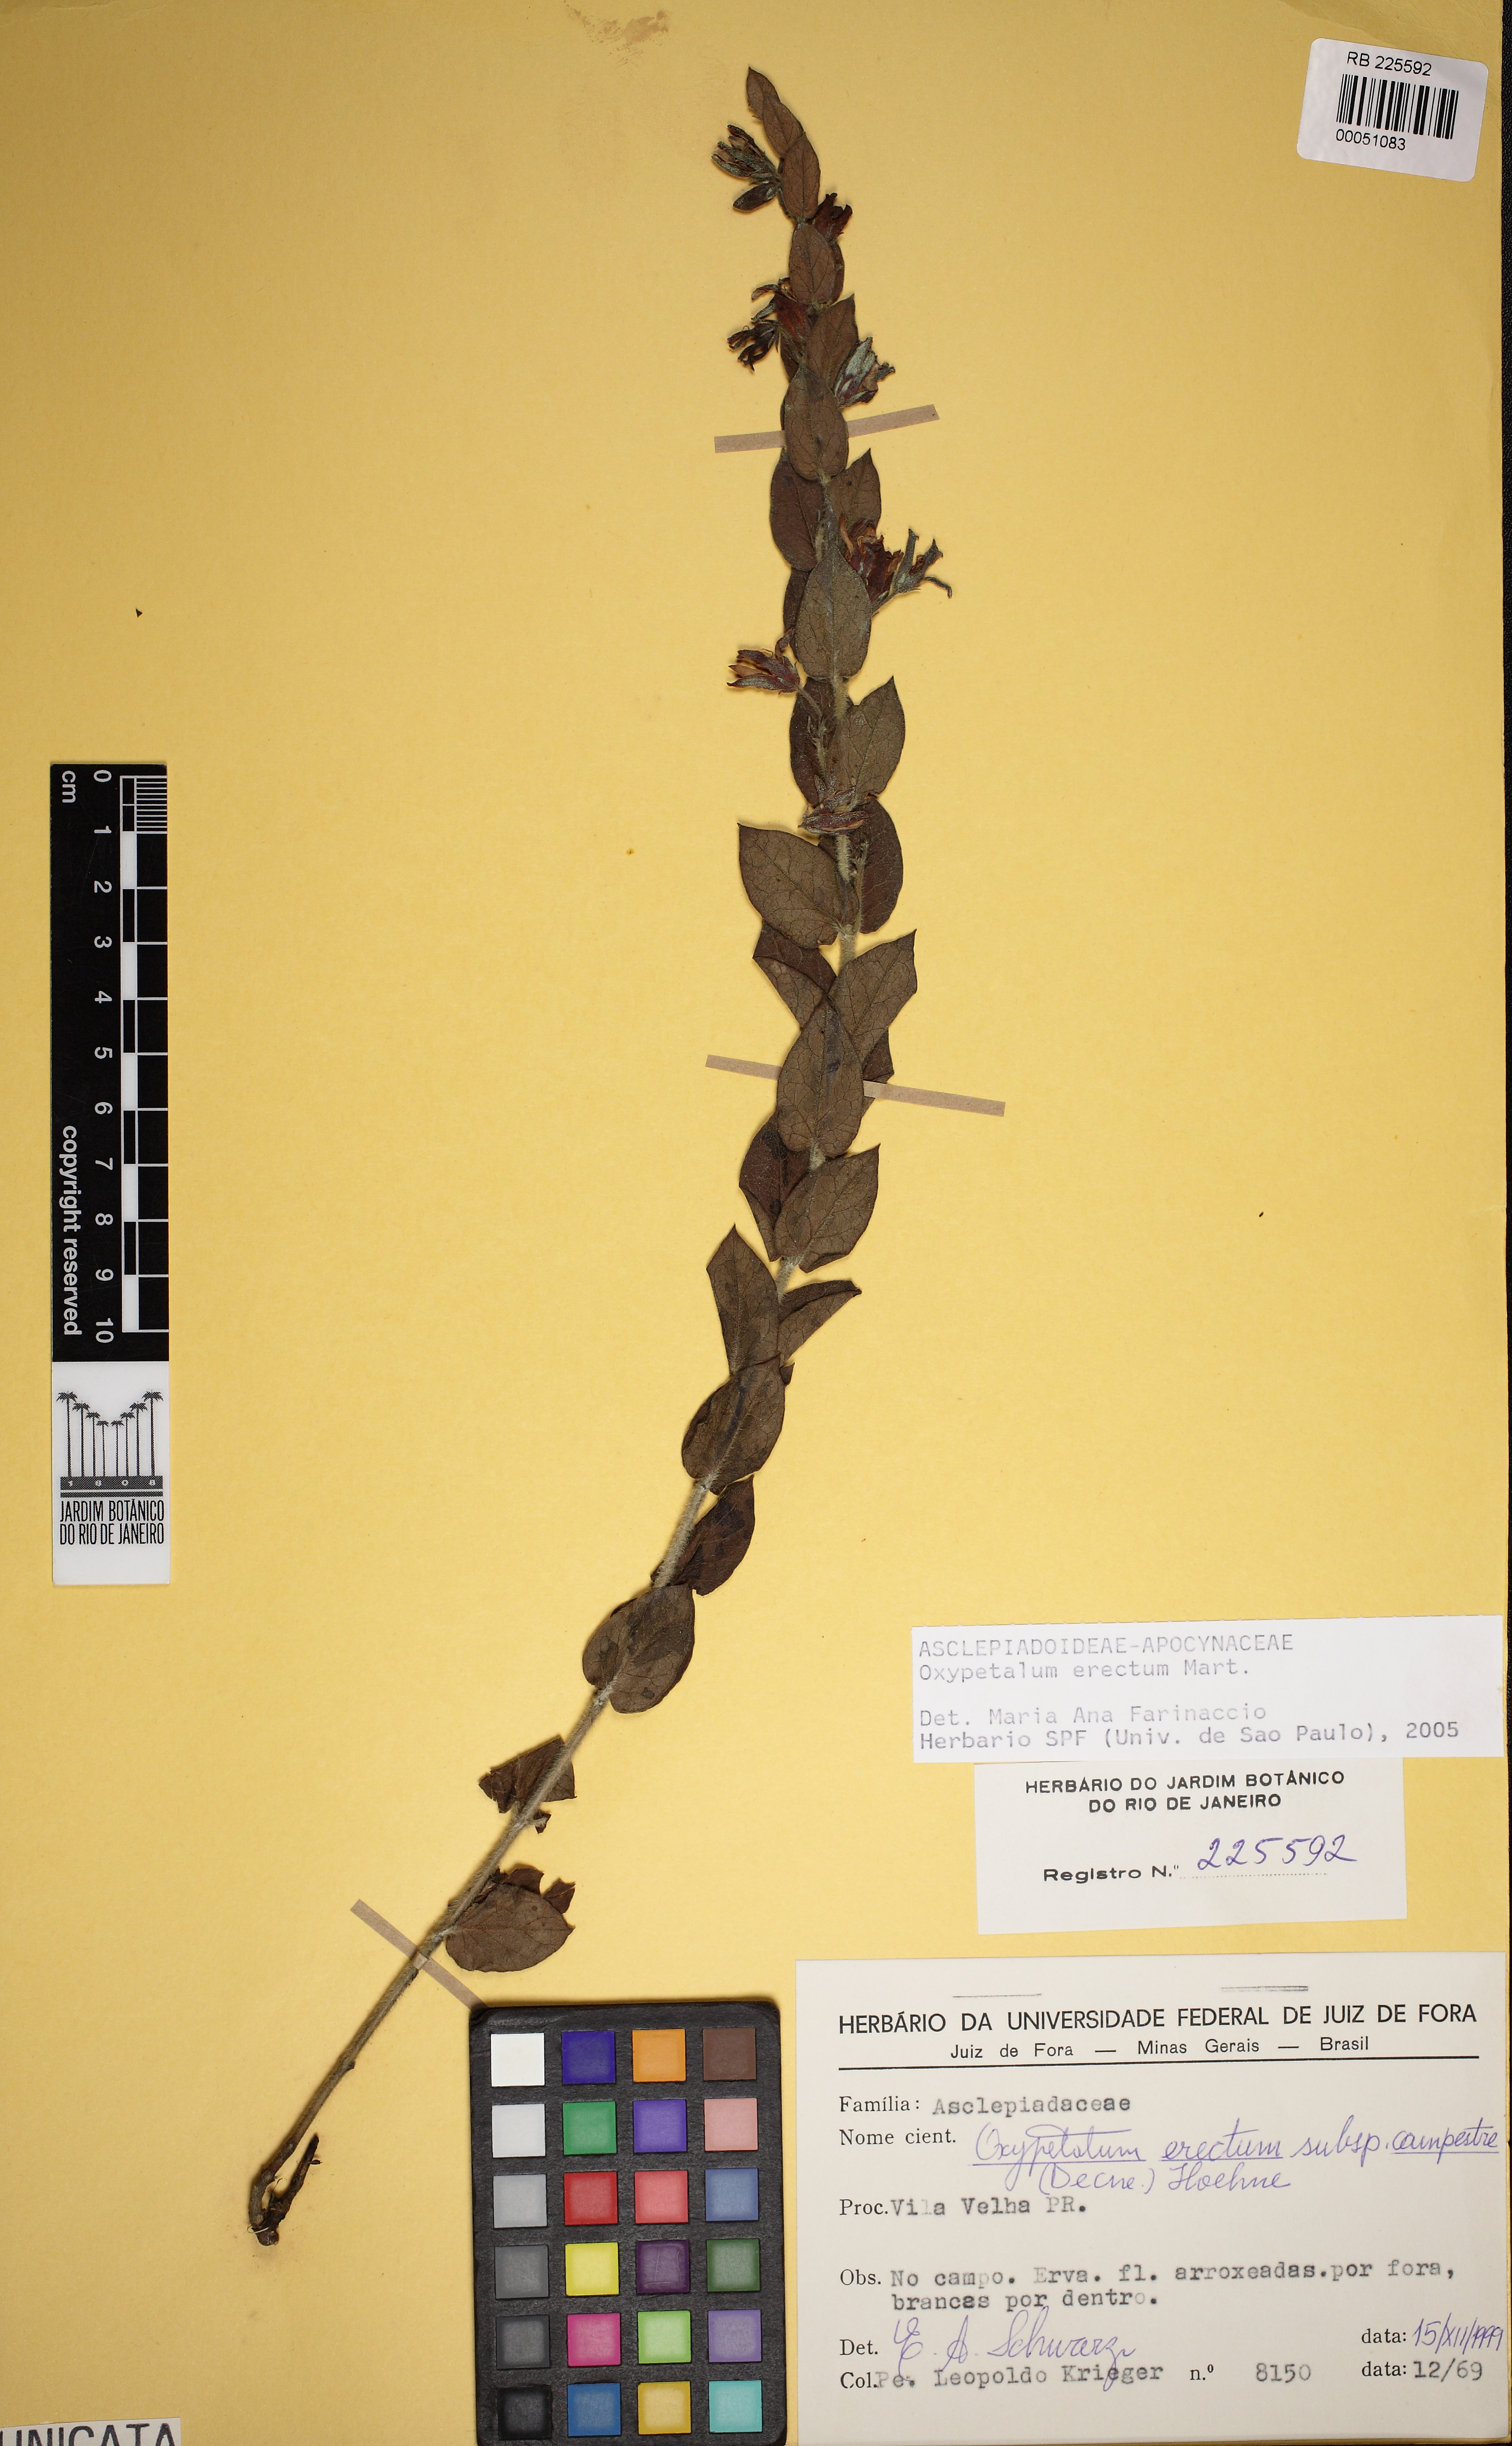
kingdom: Plantae
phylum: Tracheophyta
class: Magnoliopsida
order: Gentianales
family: Apocynaceae
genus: Oxypetalum
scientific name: Oxypetalum erectum
